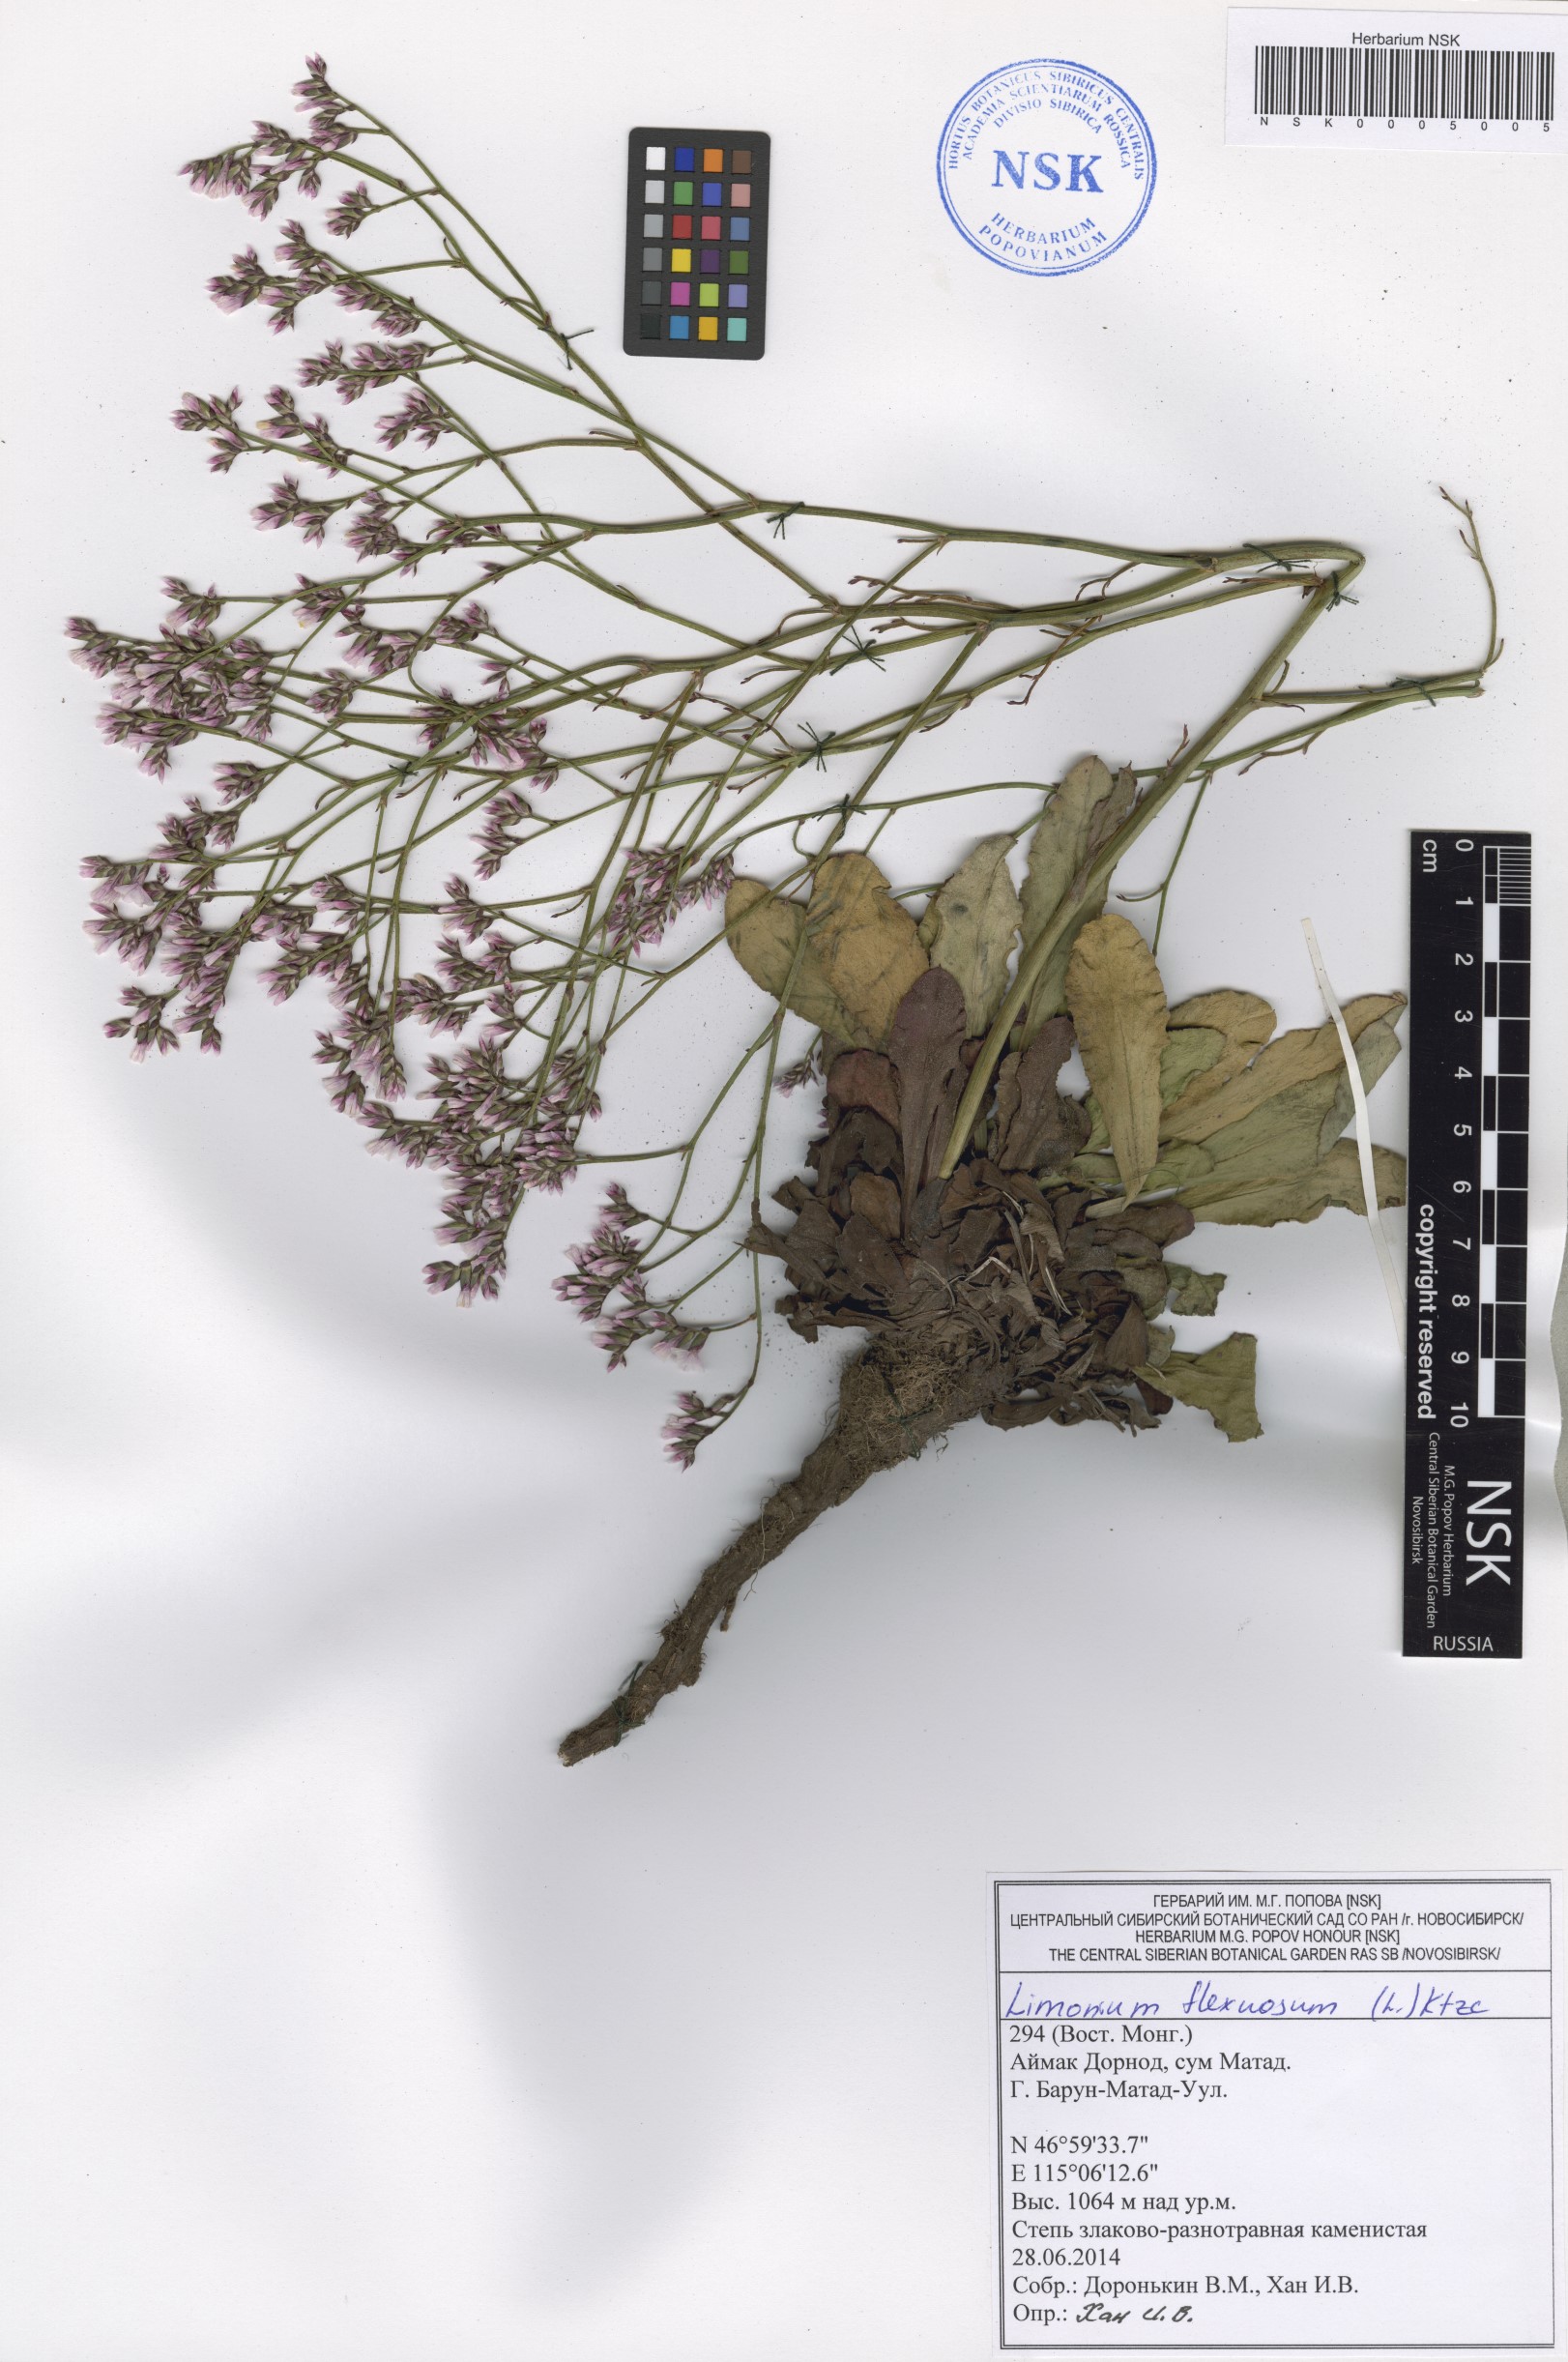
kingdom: Plantae
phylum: Tracheophyta
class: Magnoliopsida
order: Caryophyllales
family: Plumbaginaceae
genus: Limonium
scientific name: Limonium flexuosum
